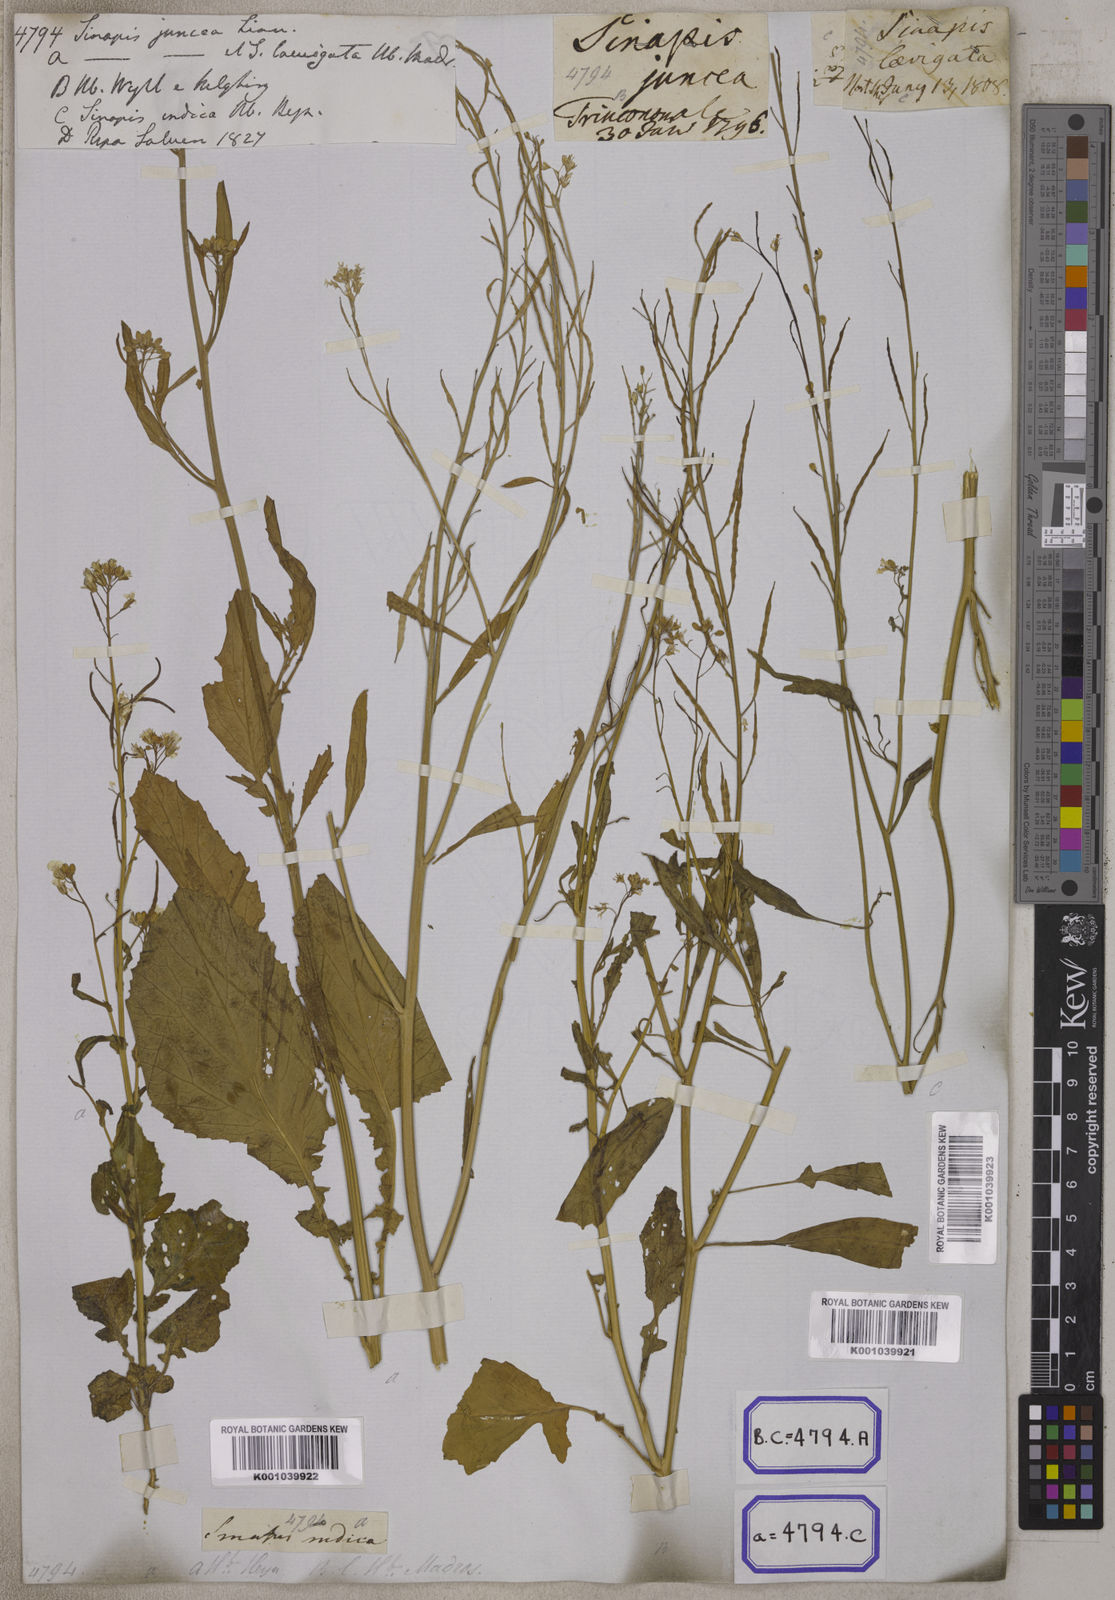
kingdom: Plantae
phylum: Tracheophyta
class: Magnoliopsida
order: Brassicales
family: Brassicaceae
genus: Brassica
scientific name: Brassica juncea
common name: Brown mustard
